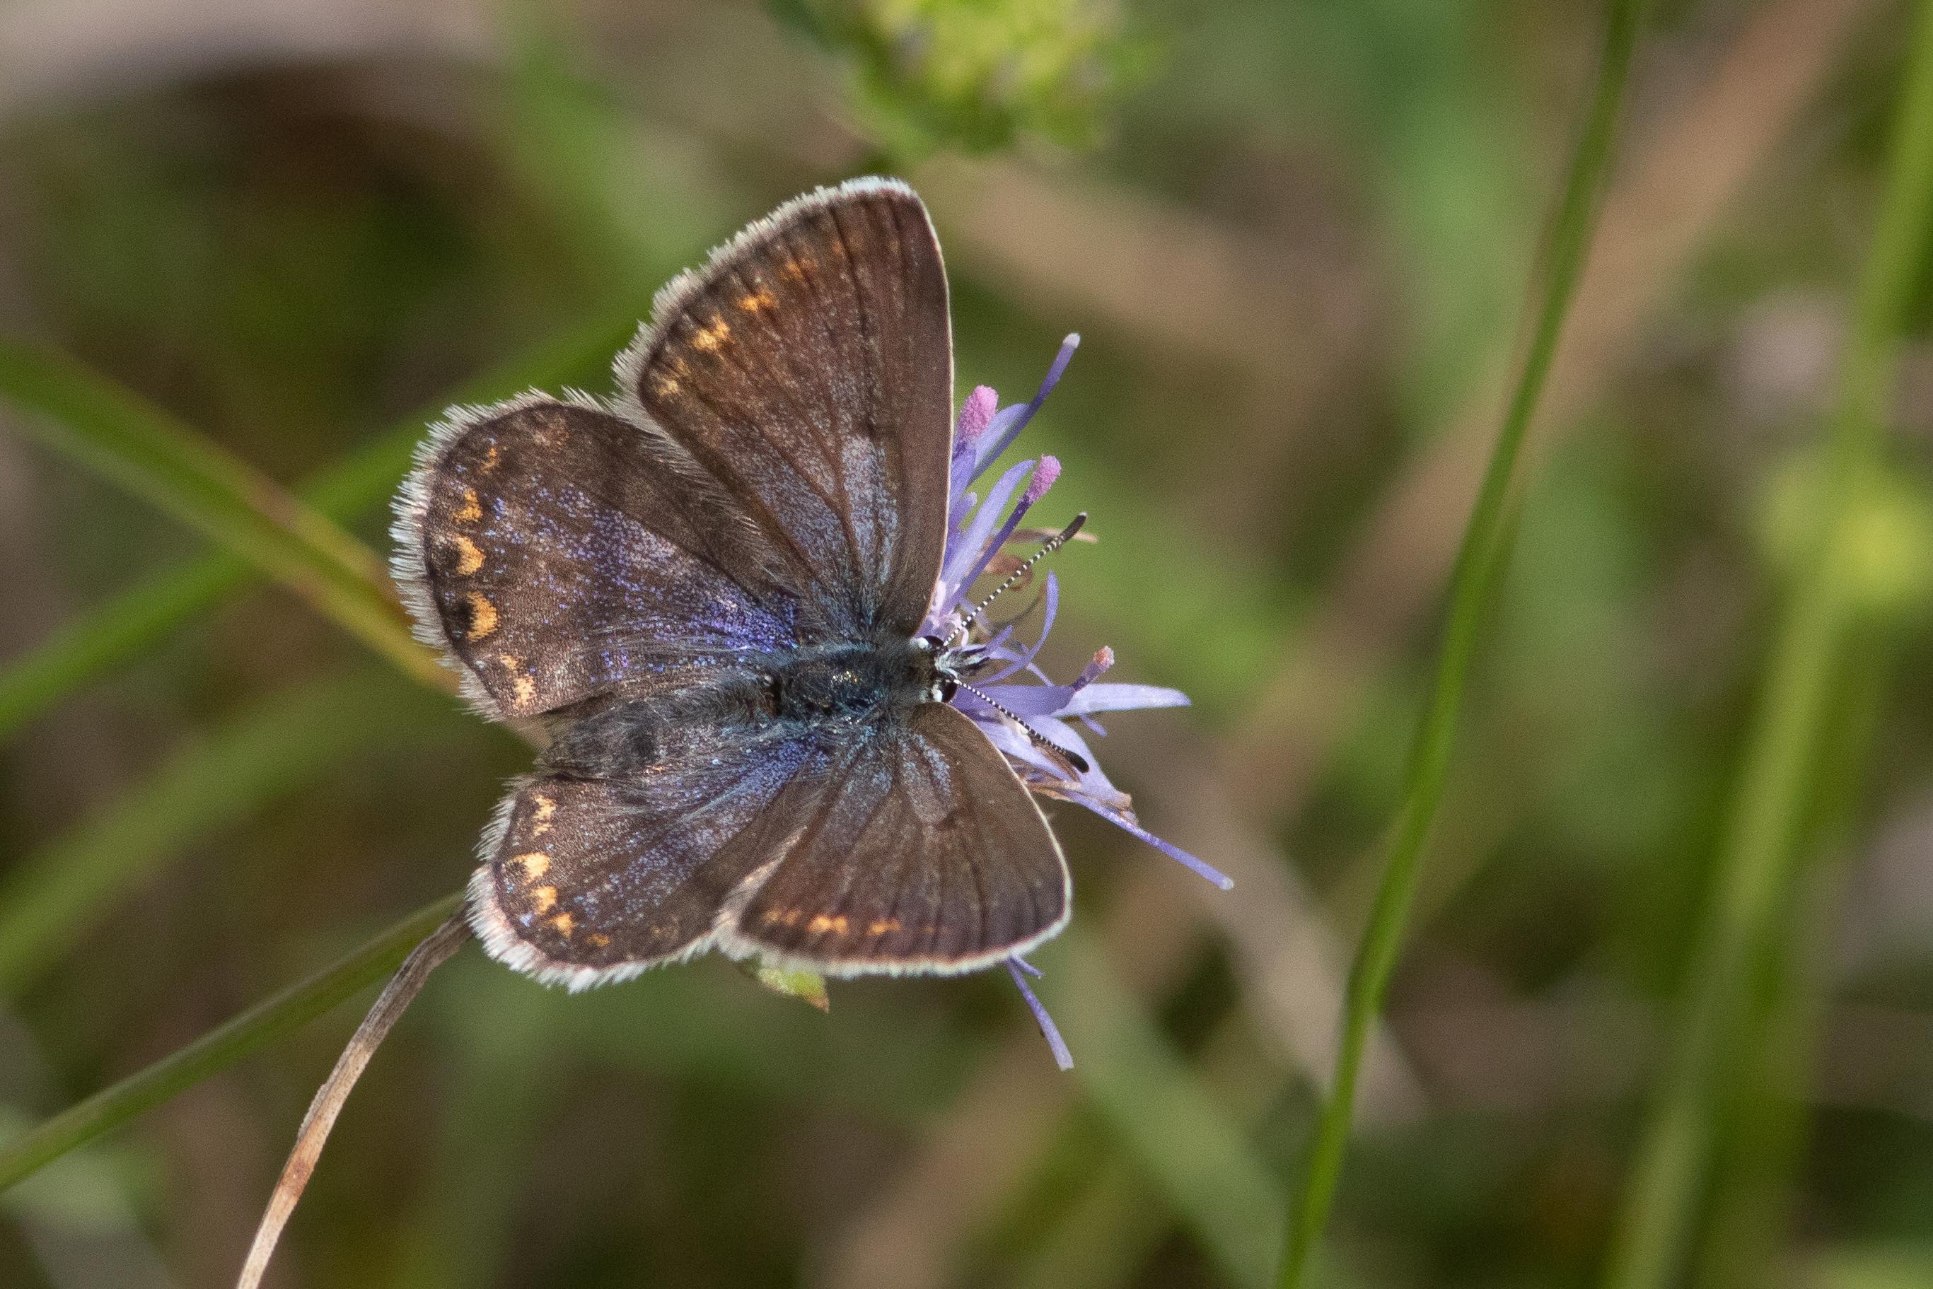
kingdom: Animalia
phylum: Arthropoda
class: Insecta
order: Lepidoptera
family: Lycaenidae
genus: Polyommatus
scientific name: Polyommatus icarus
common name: Almindelig blåfugl
